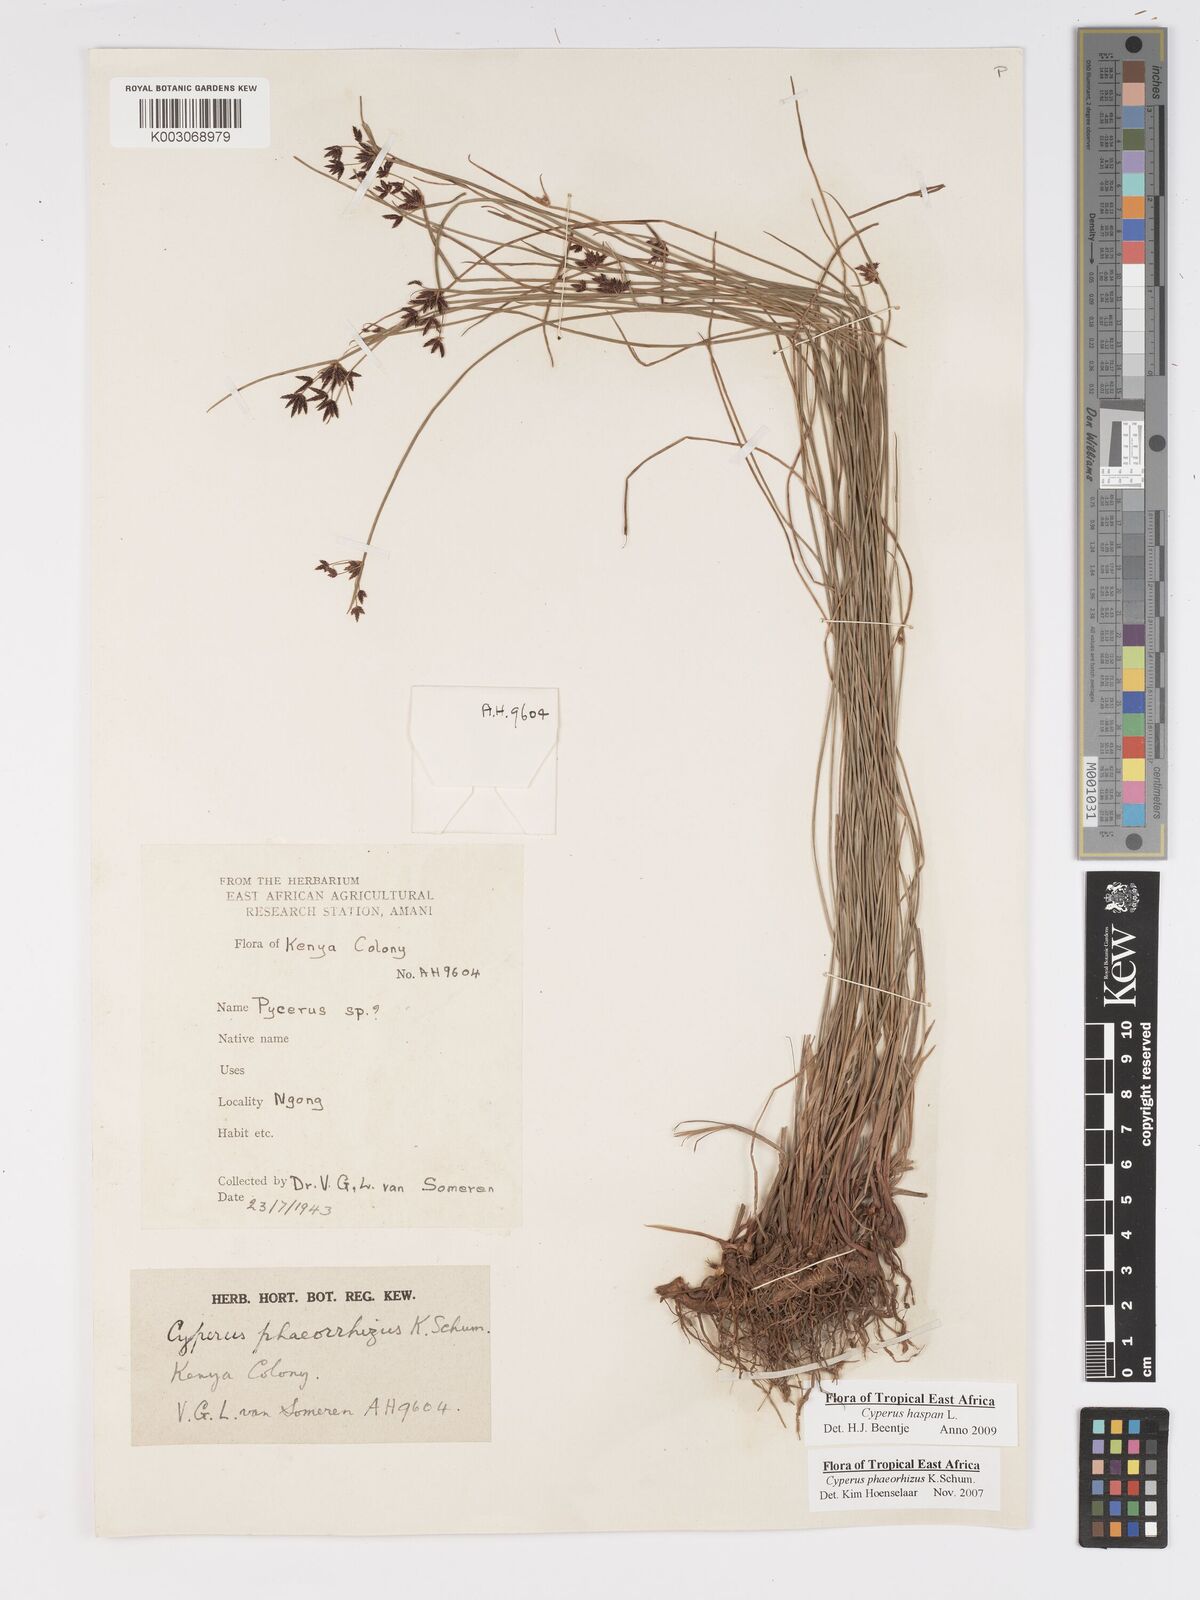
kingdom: Plantae
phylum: Tracheophyta
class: Liliopsida
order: Poales
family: Cyperaceae
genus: Cyperus
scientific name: Cyperus haspan
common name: Haspan flatsedge
